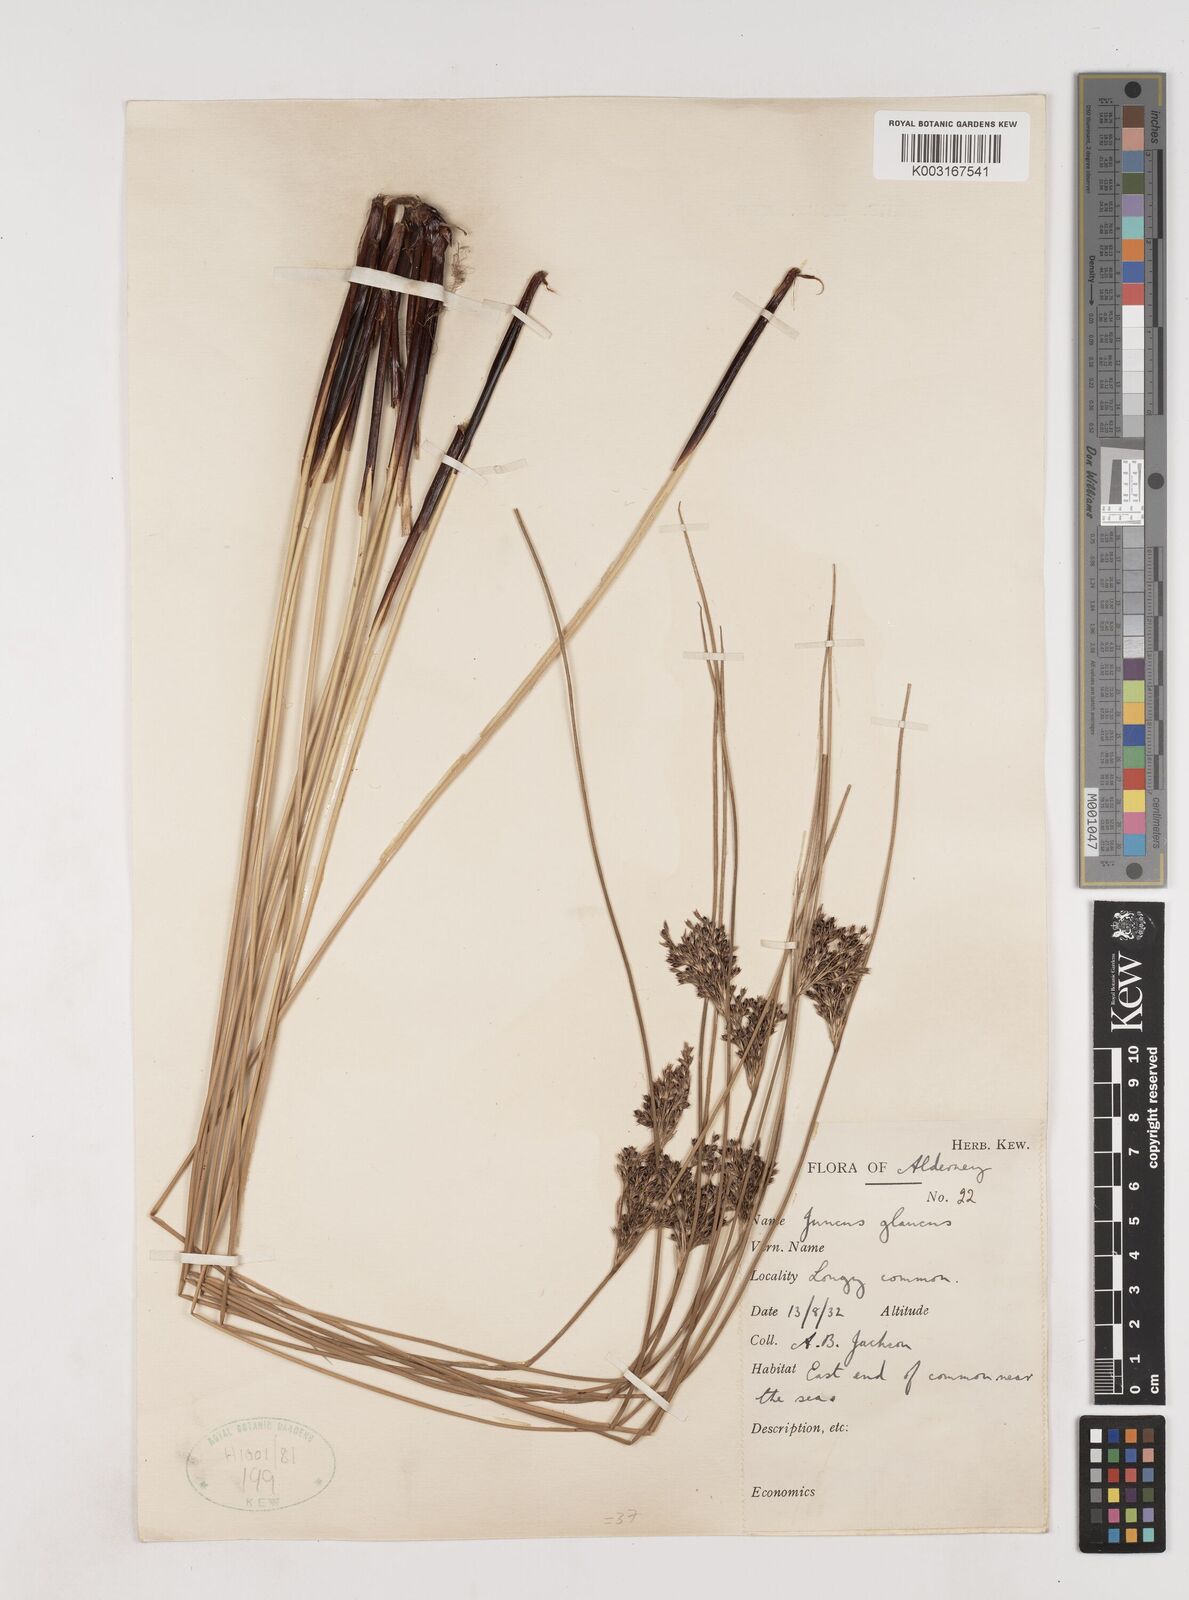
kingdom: Plantae
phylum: Tracheophyta
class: Liliopsida
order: Poales
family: Juncaceae
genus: Juncus
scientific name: Juncus inflexus
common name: Hard rush
